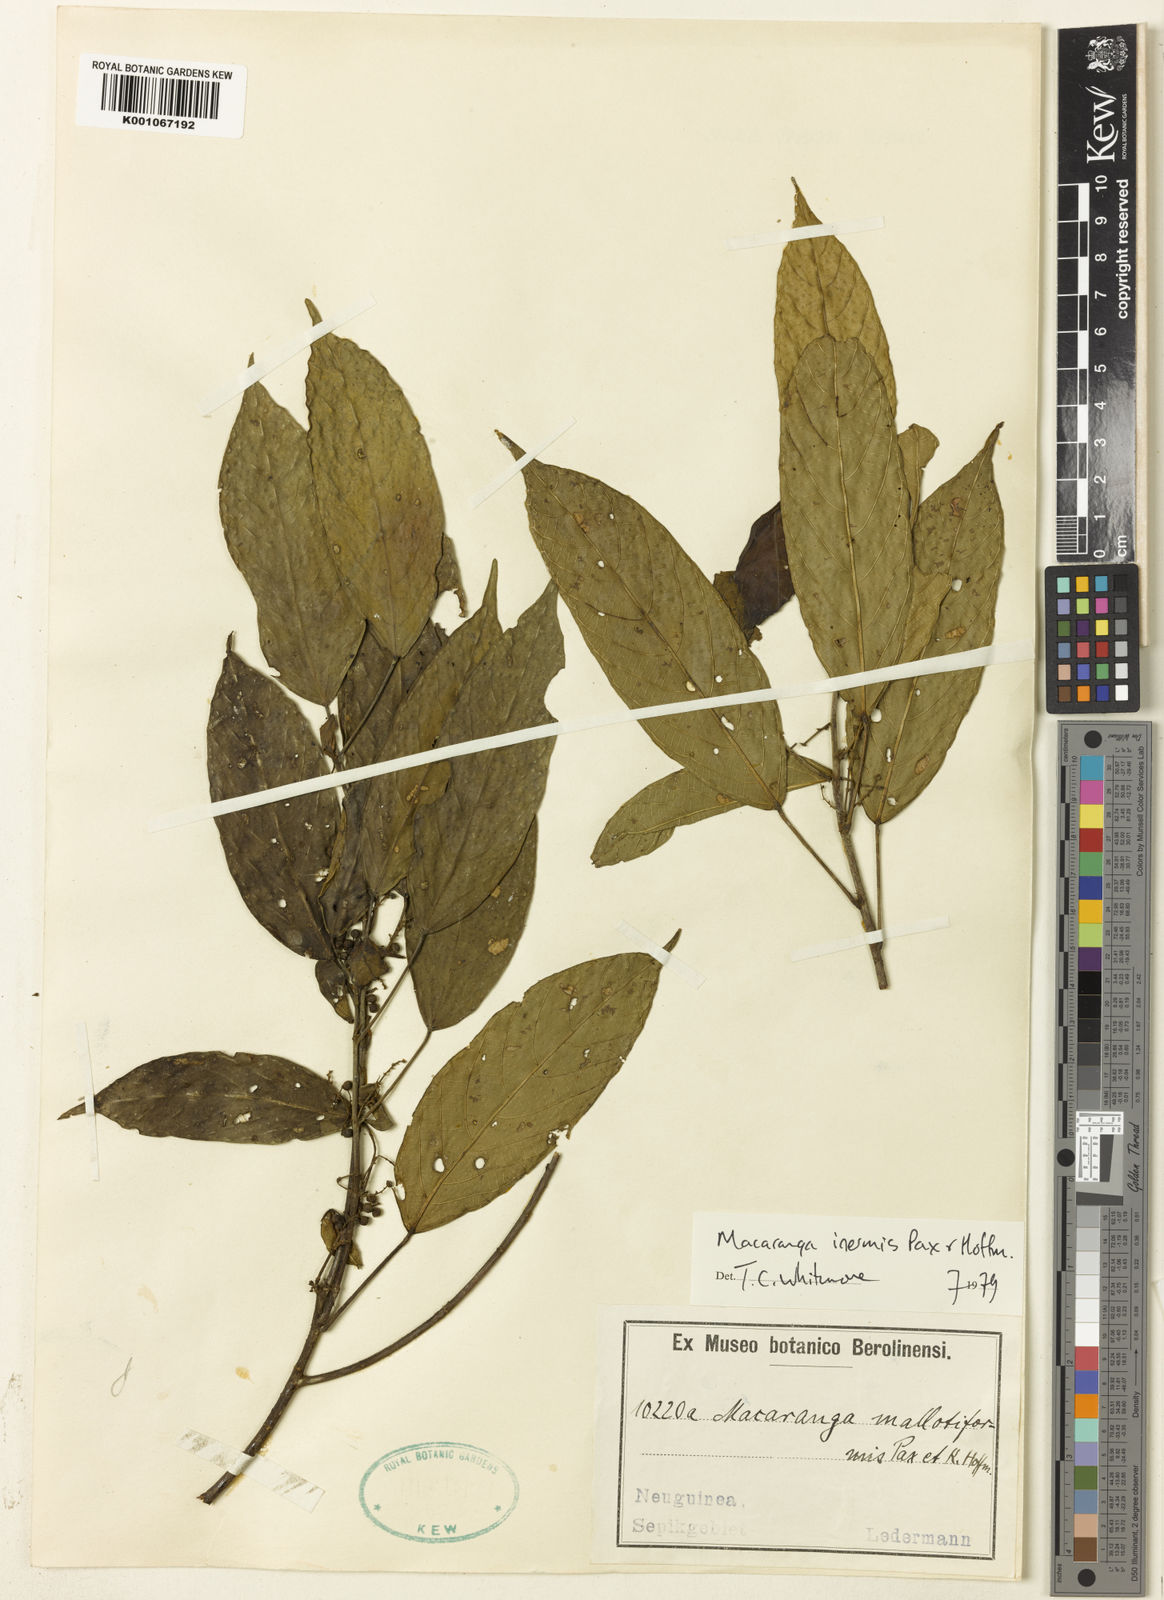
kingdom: Plantae
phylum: Tracheophyta
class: Magnoliopsida
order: Malpighiales
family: Euphorbiaceae
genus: Macaranga
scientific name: Macaranga inermis
